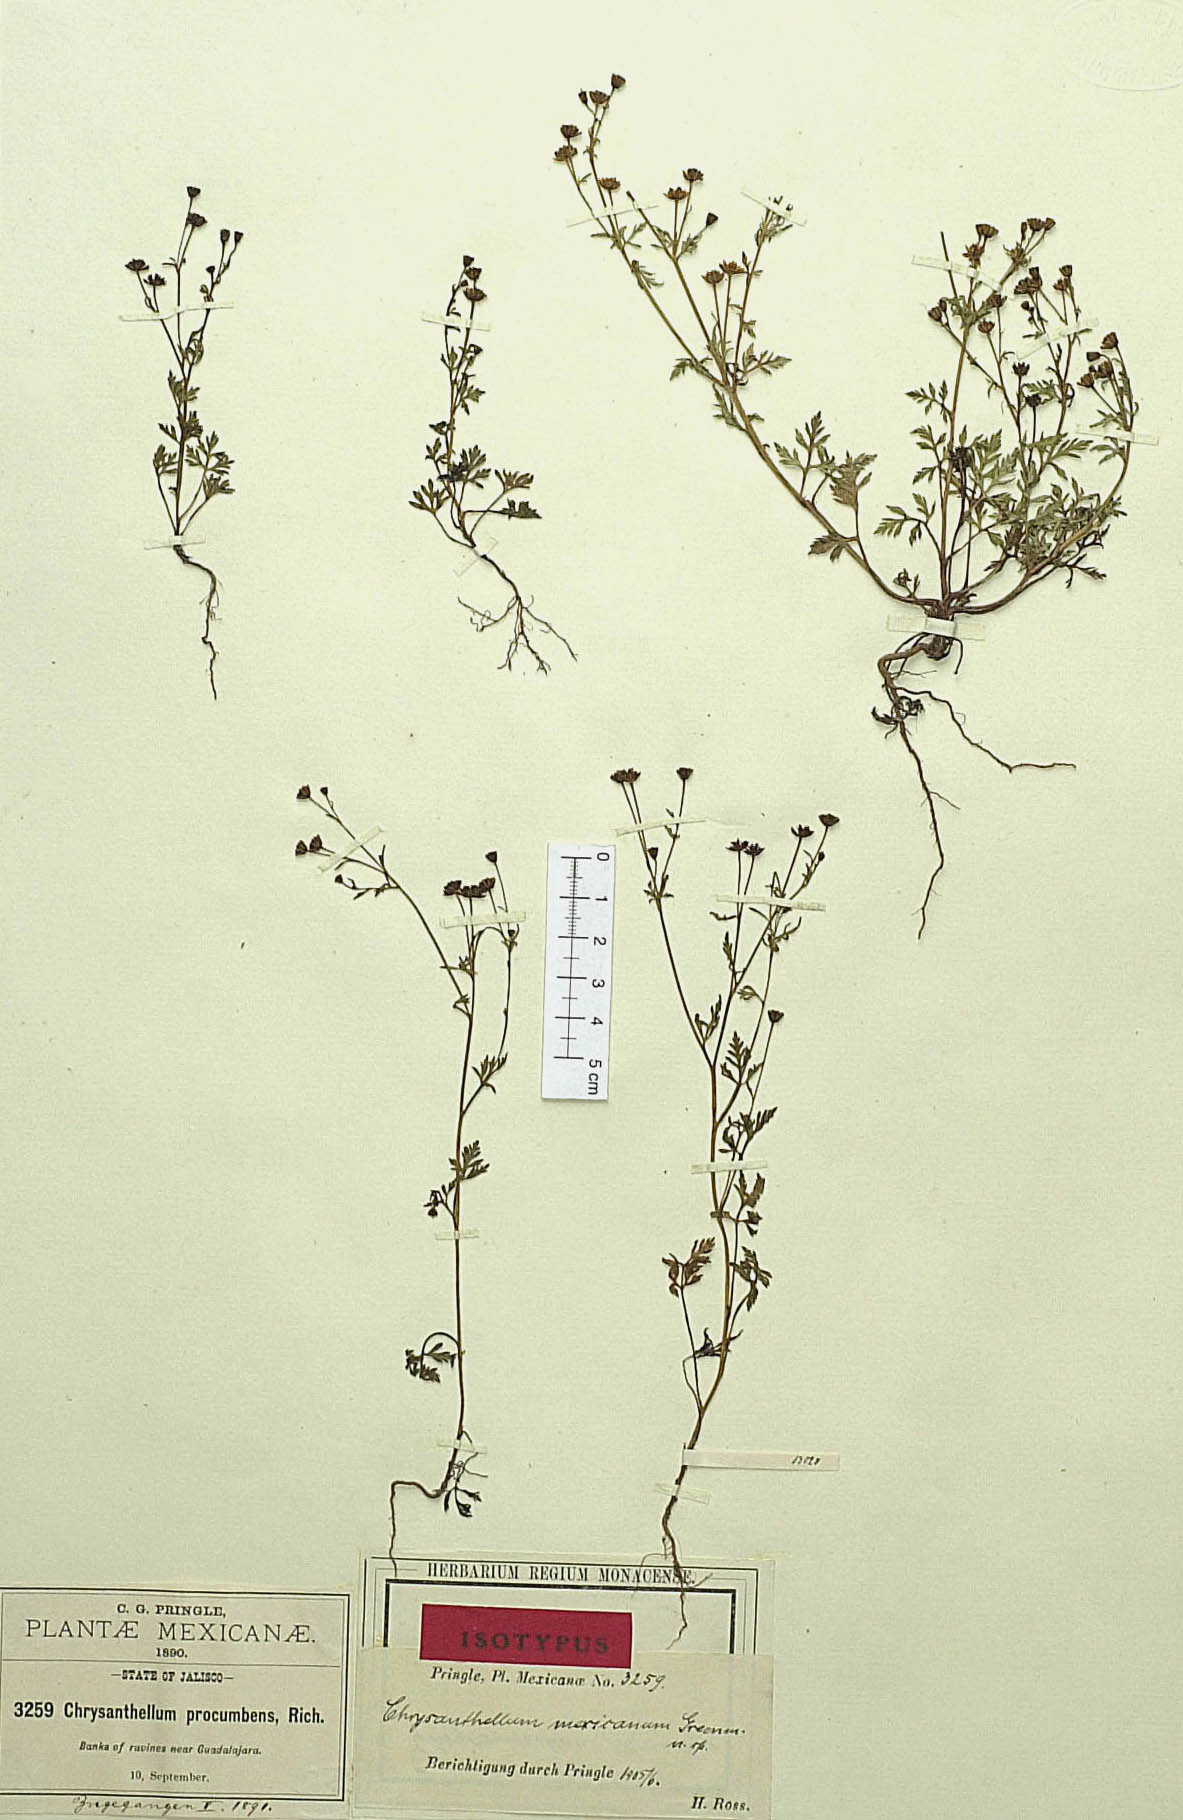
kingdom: Plantae
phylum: Tracheophyta
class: Magnoliopsida
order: Asterales
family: Asteraceae
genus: Chrysanthellum
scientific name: Chrysanthellum indicum
